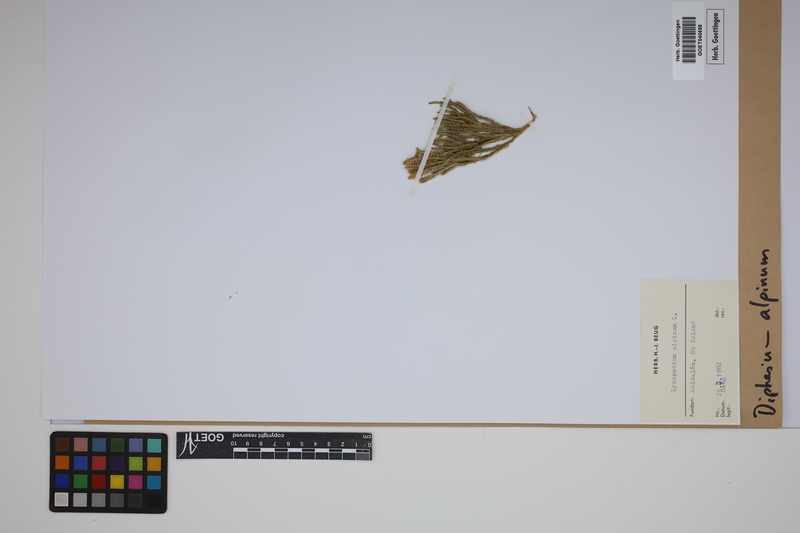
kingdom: Plantae
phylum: Tracheophyta
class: Lycopodiopsida
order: Lycopodiales
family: Lycopodiaceae
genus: Diphasiastrum
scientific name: Diphasiastrum alpinum
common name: Alpine clubmoss
